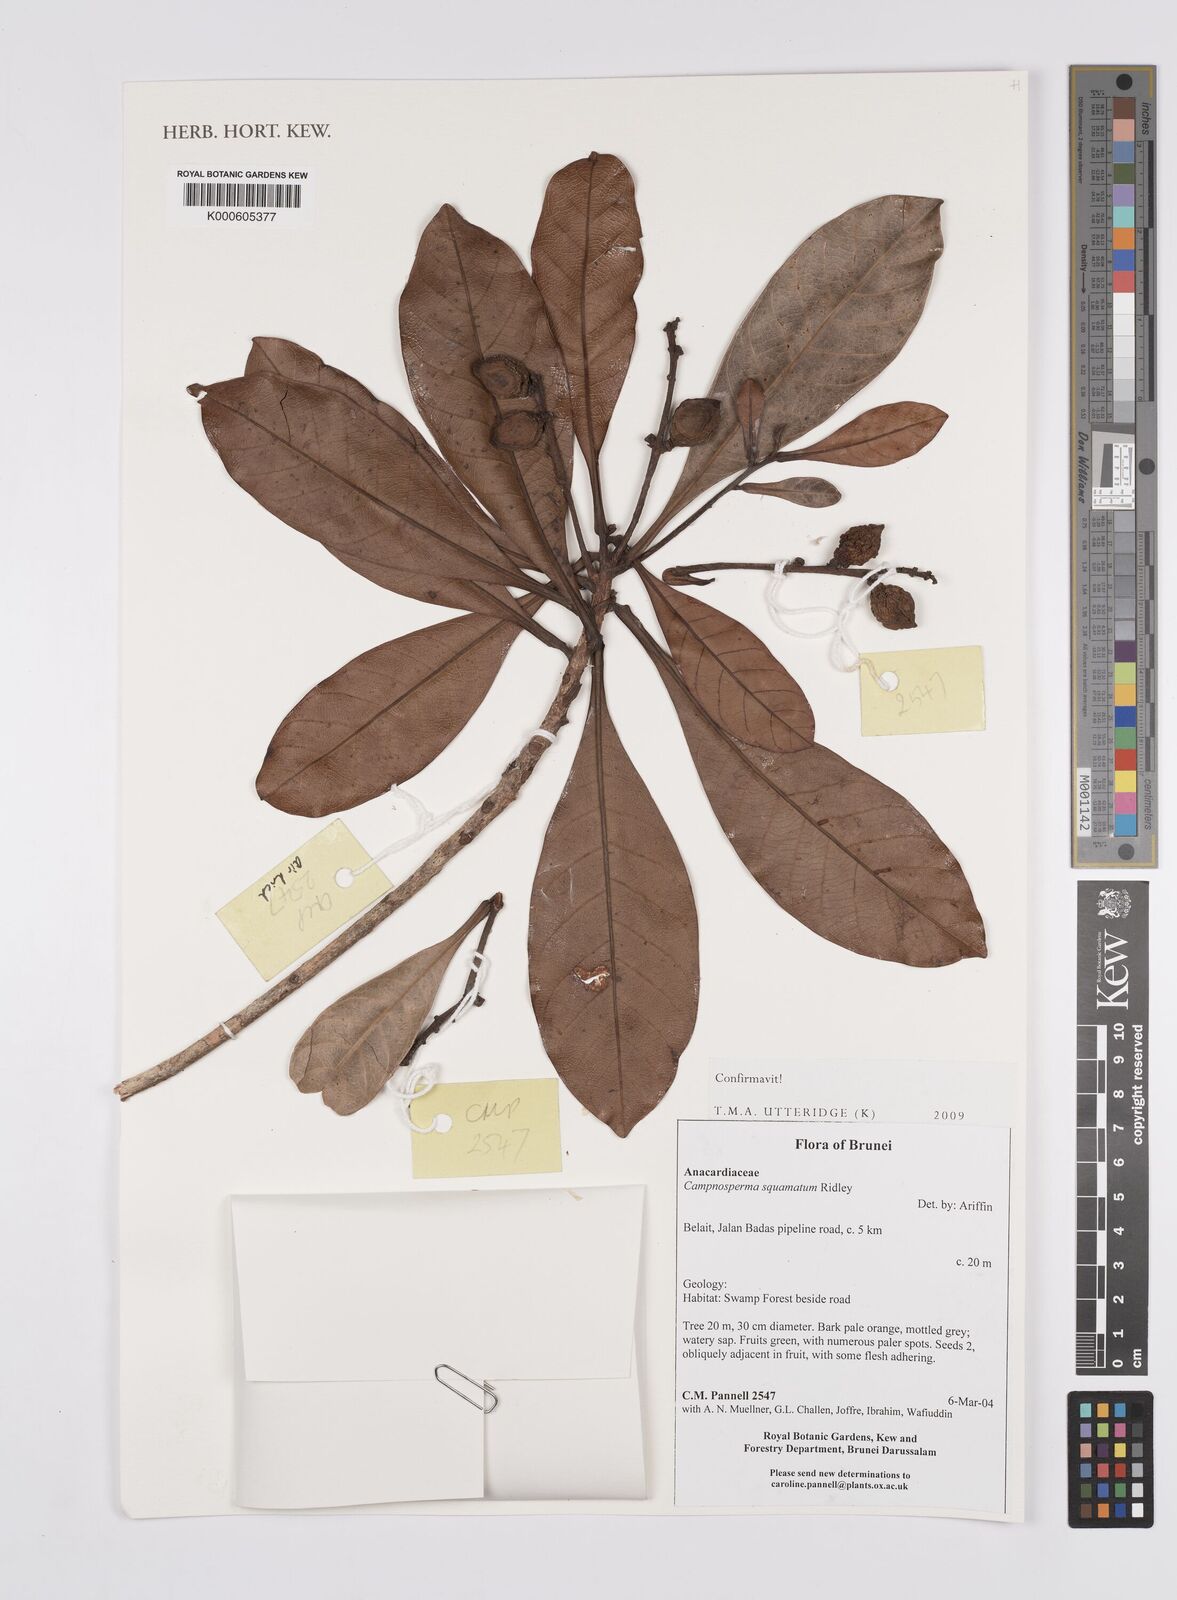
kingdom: Plantae
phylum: Tracheophyta
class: Magnoliopsida
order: Sapindales
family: Anacardiaceae
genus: Campnosperma
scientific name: Campnosperma squamatum
